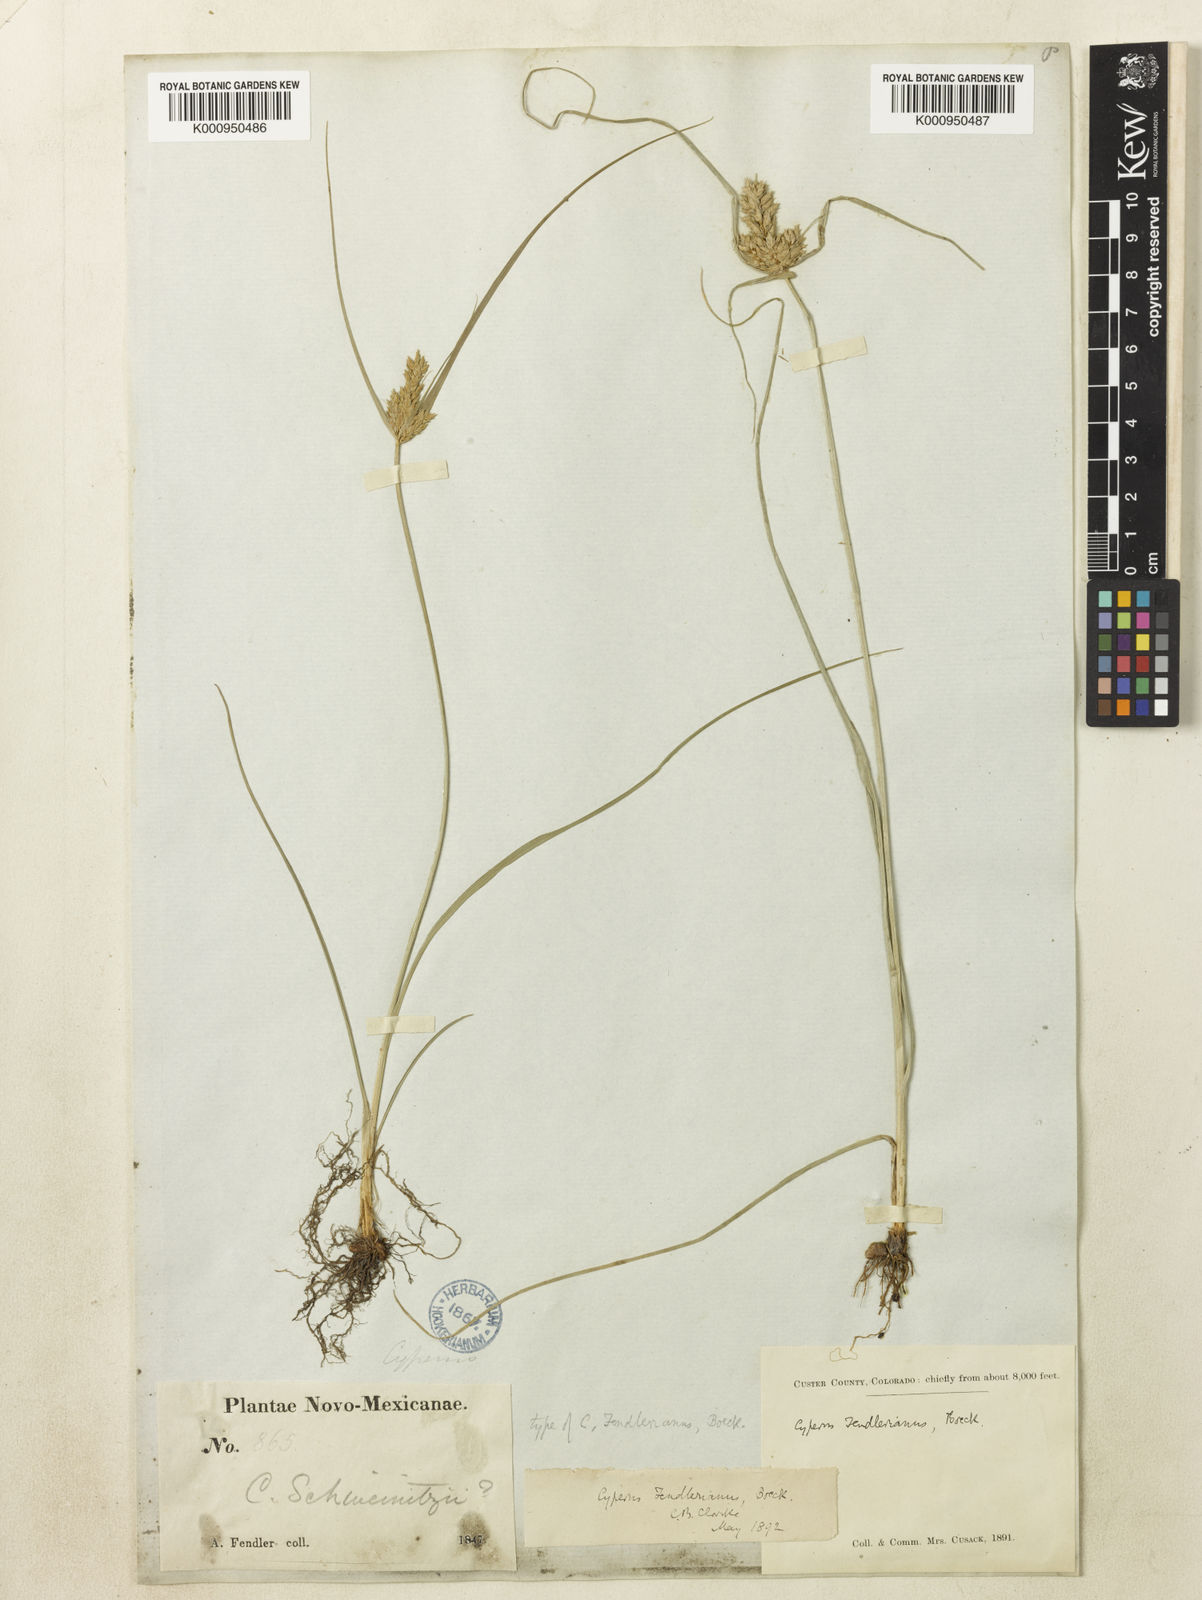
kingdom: Plantae
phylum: Tracheophyta
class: Liliopsida
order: Poales
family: Cyperaceae
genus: Cyperus
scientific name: Cyperus fendlerianus
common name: Fendler flat sedge
